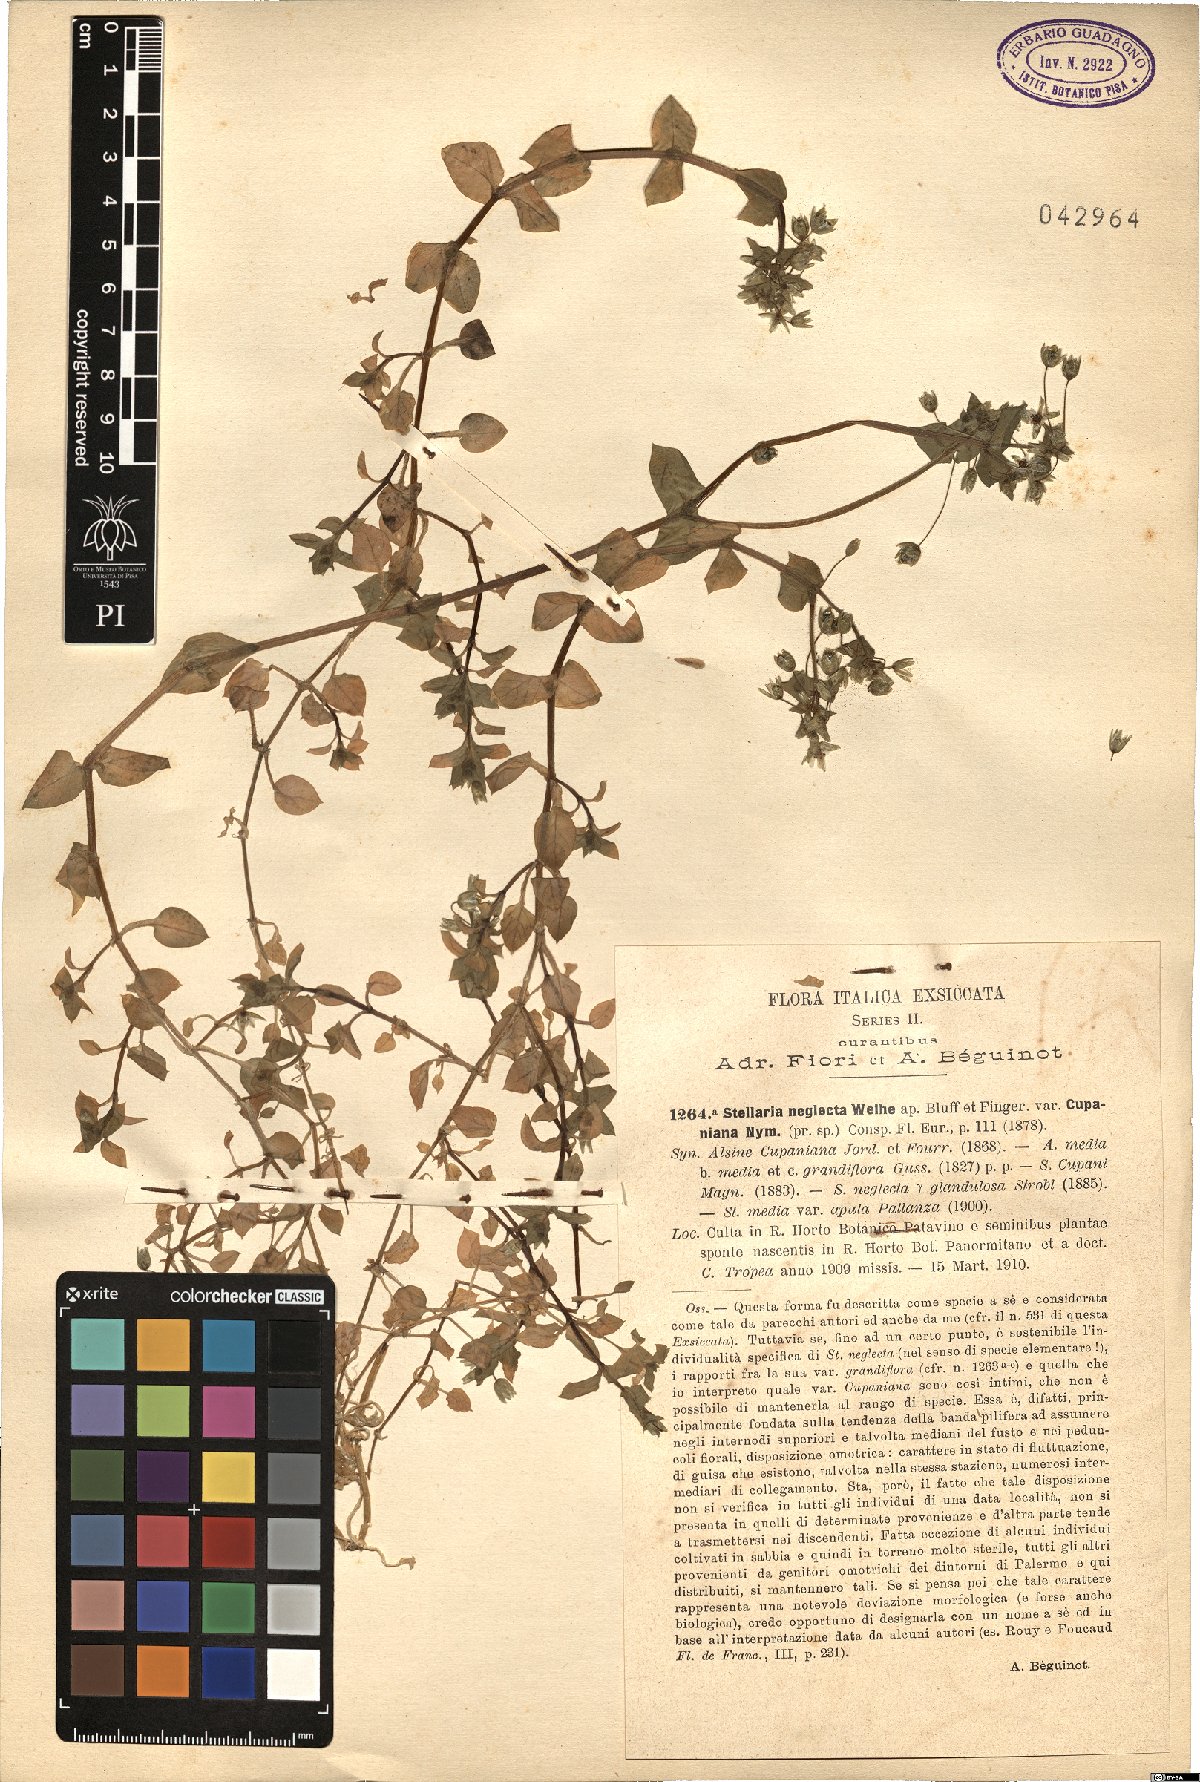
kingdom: Plantae
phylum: Tracheophyta
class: Magnoliopsida
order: Caryophyllales
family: Caryophyllaceae
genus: Stellaria
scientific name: Stellaria neglecta
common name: Greater chickweed
